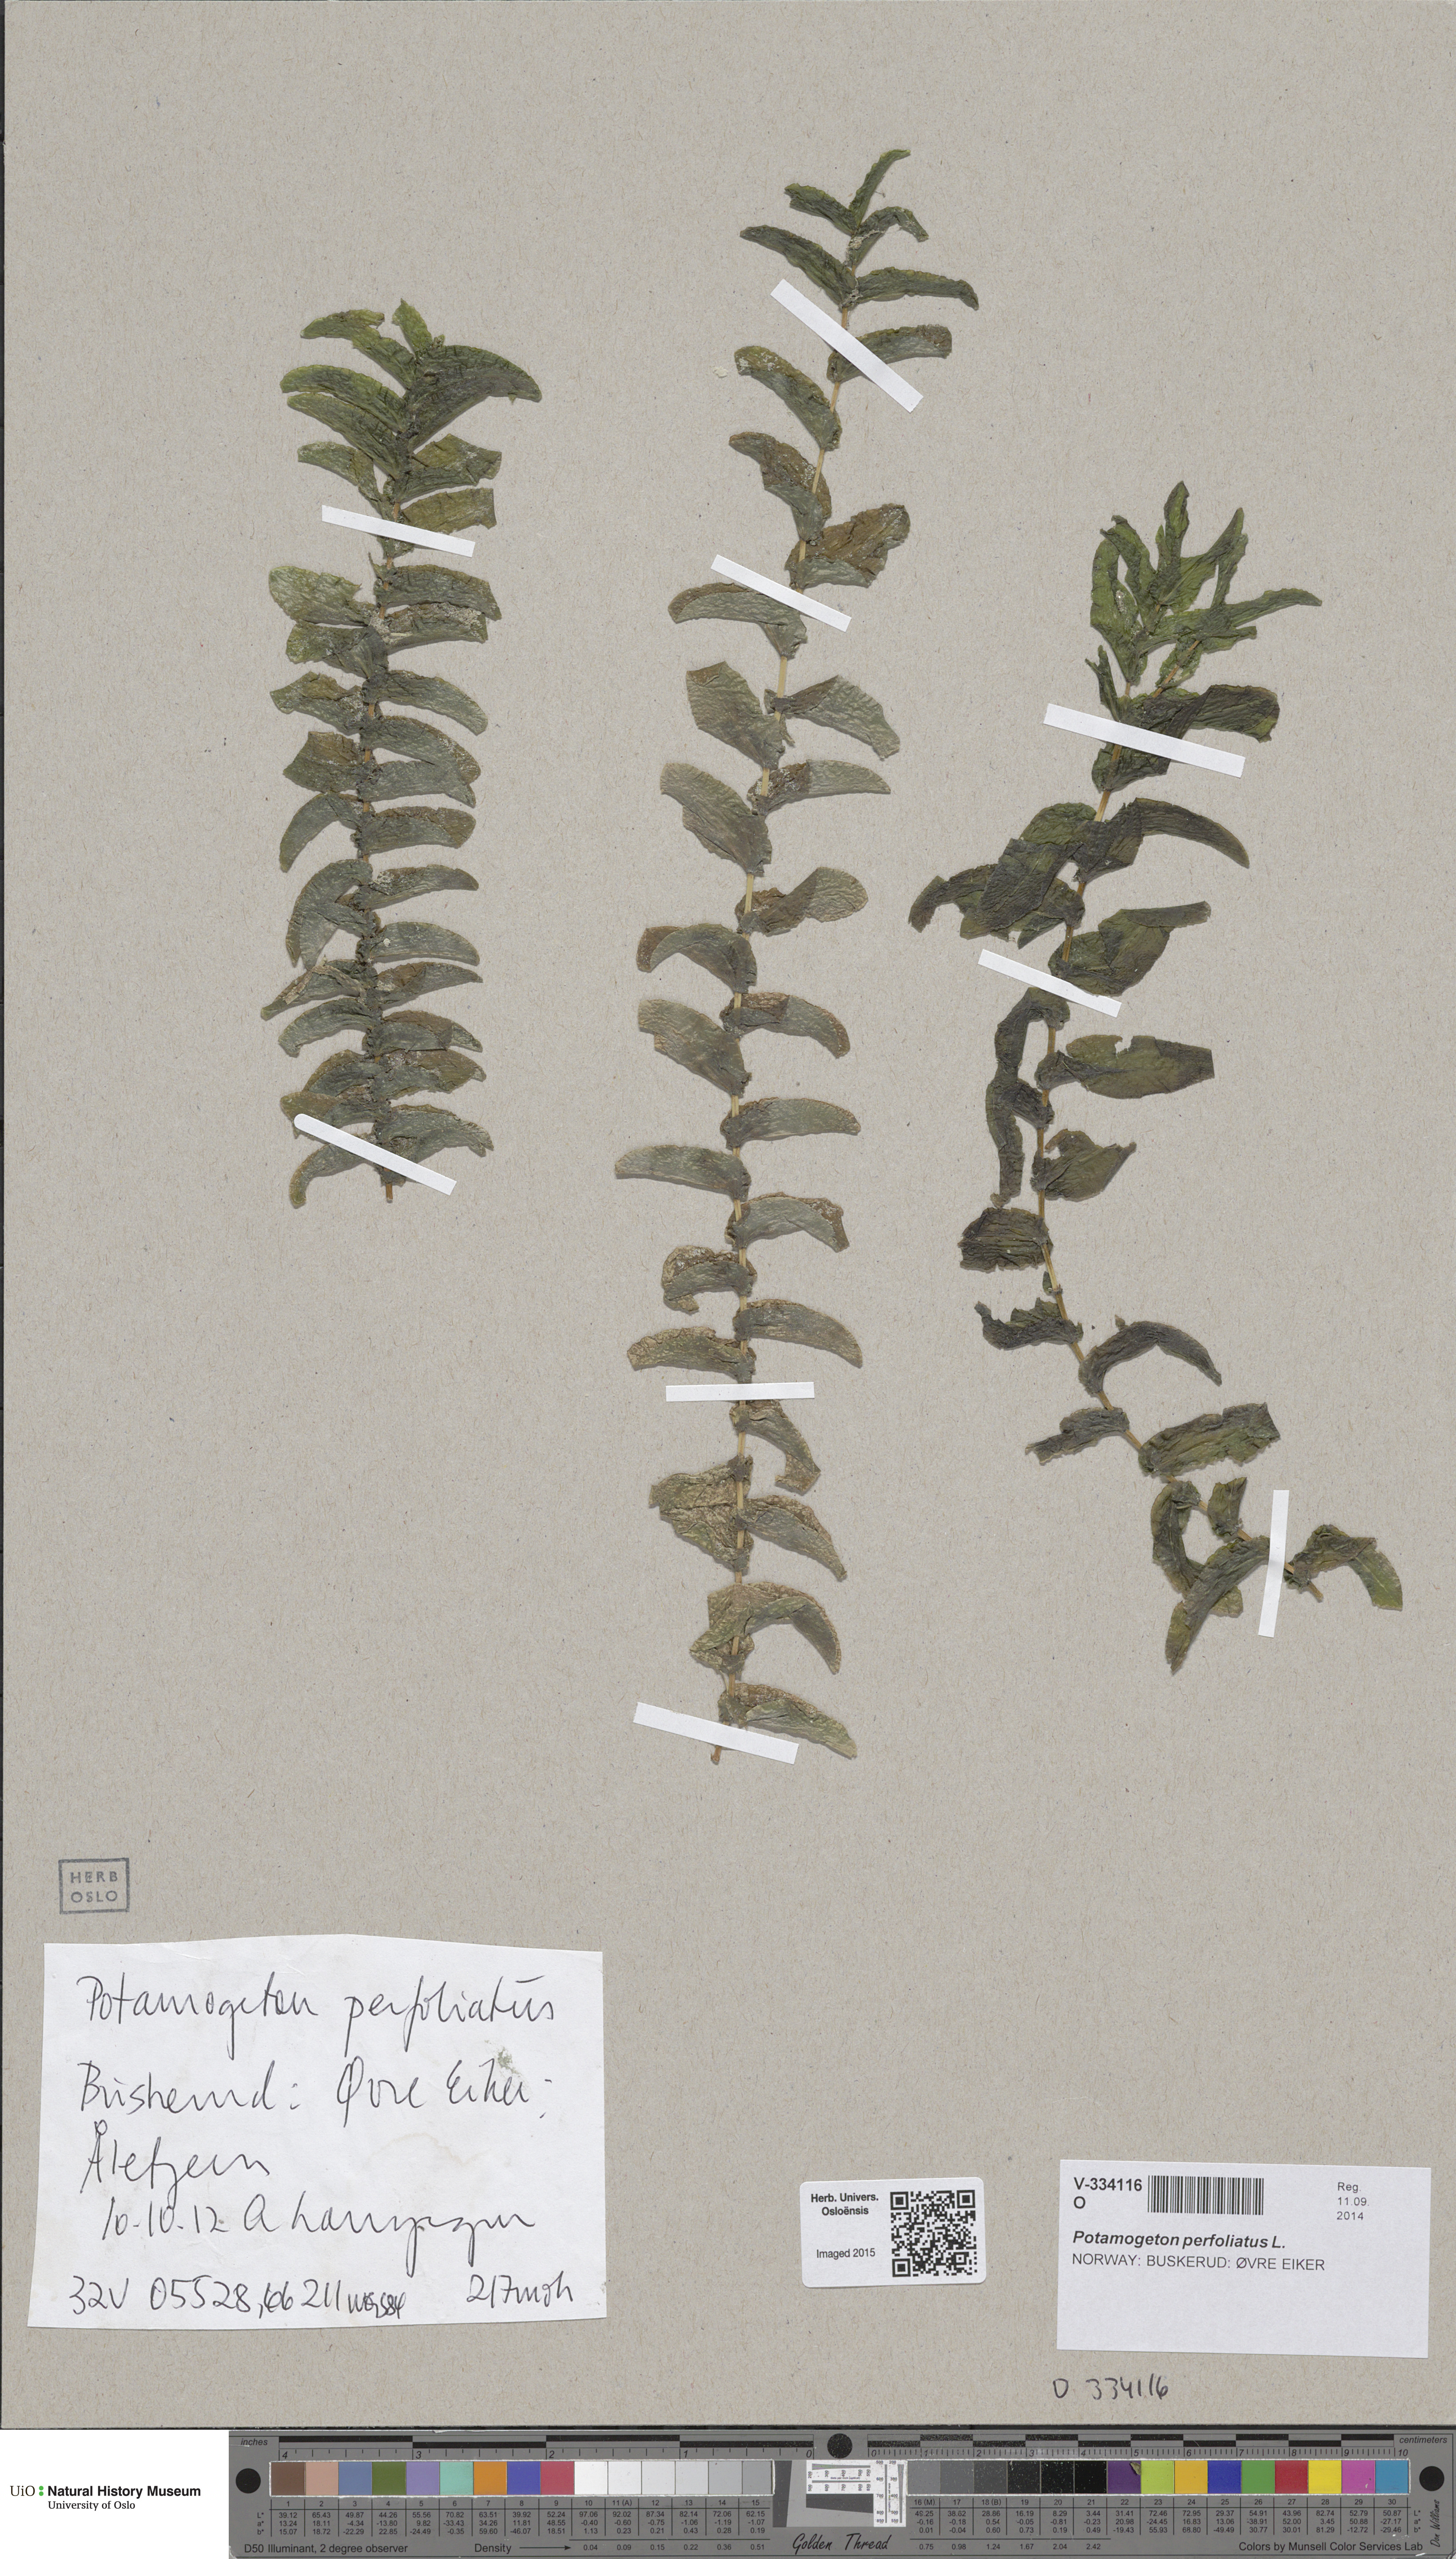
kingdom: Plantae
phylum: Tracheophyta
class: Liliopsida
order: Alismatales
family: Potamogetonaceae
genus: Potamogeton
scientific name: Potamogeton perfoliatus
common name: Perfoliate pondweed
